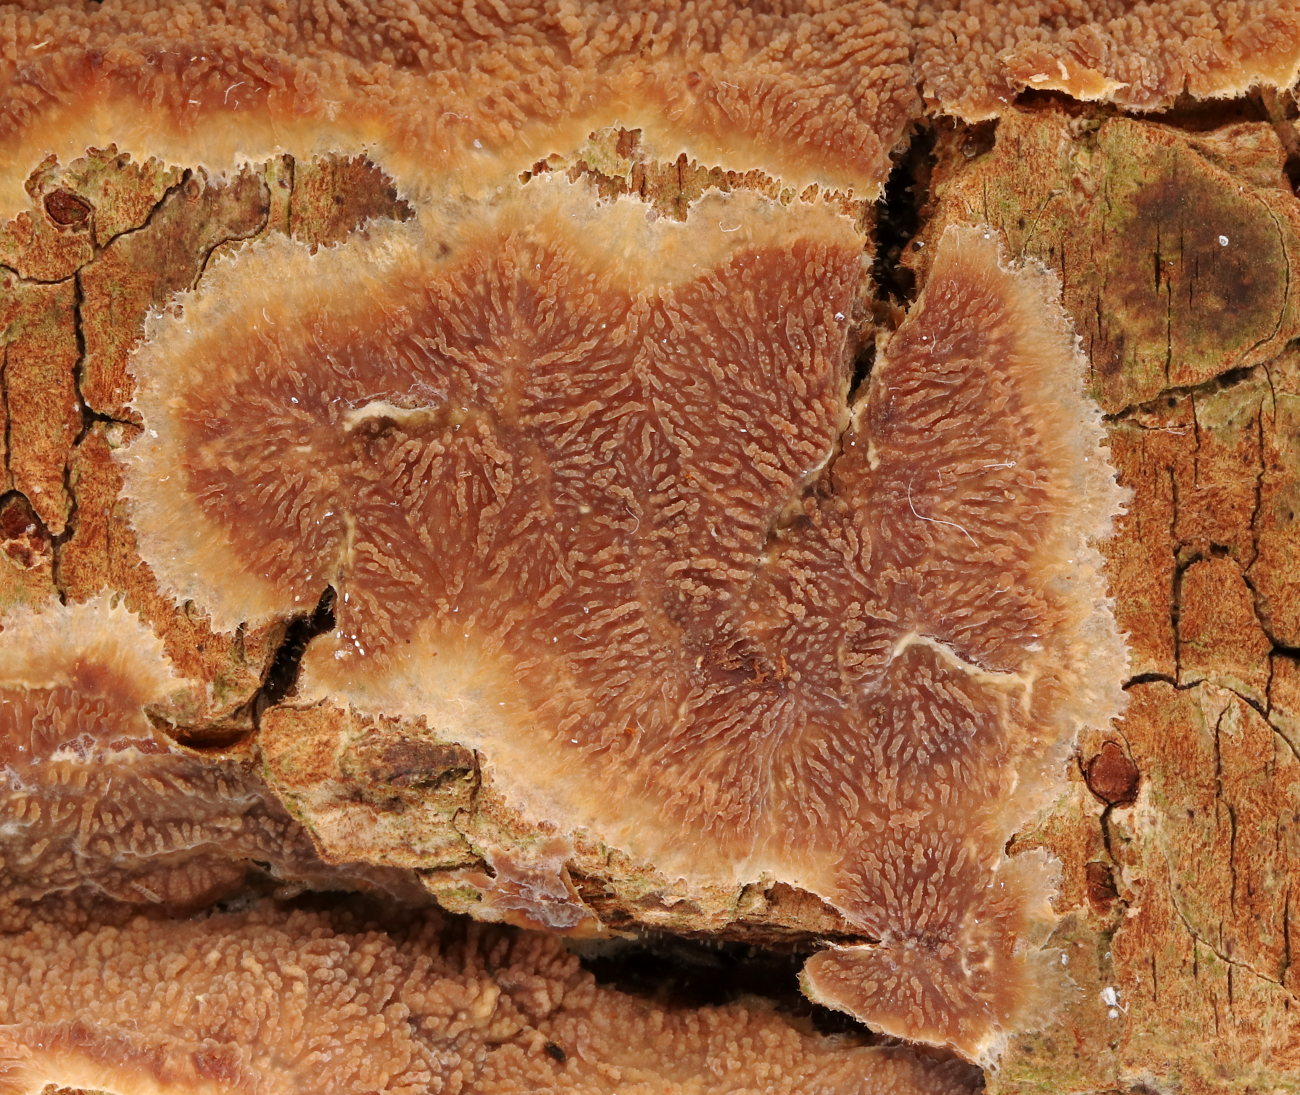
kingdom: Fungi
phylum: Basidiomycota
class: Agaricomycetes
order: Polyporales
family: Meruliaceae
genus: Phlebia
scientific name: Phlebia radiata
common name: stråle-åresvamp
